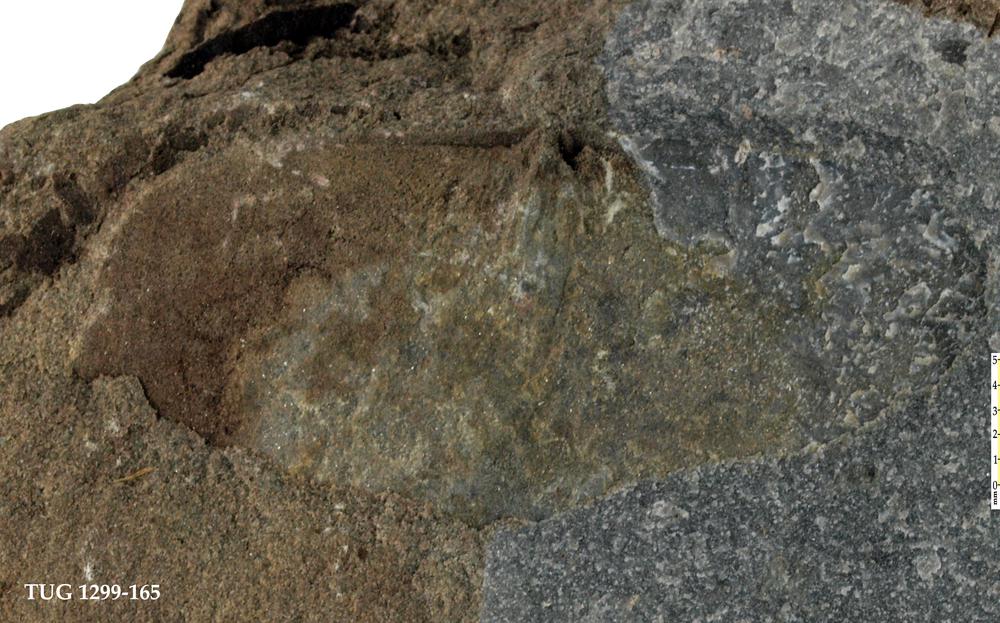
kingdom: Animalia
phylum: Brachiopoda
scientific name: Brachiopoda
